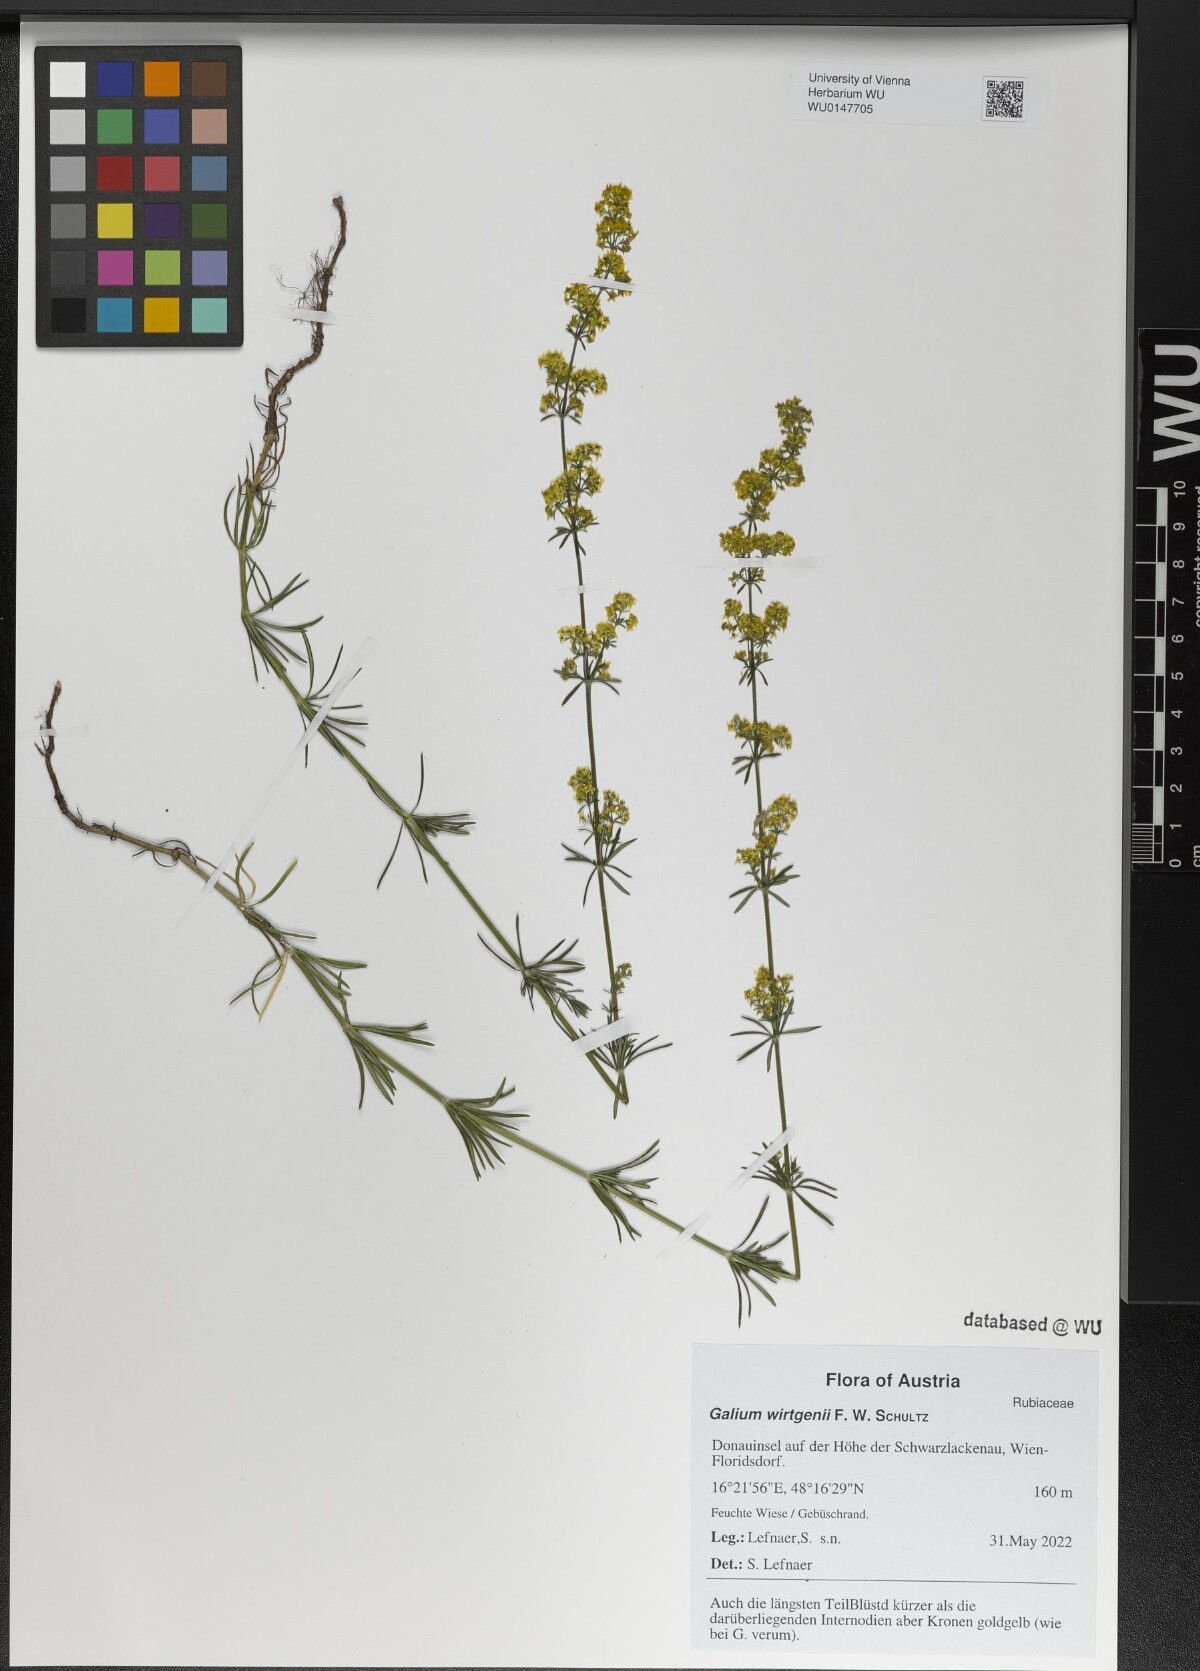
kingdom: Plantae
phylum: Tracheophyta
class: Magnoliopsida
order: Gentianales
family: Rubiaceae
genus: Galium
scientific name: Galium verum
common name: Lady's bedstraw
